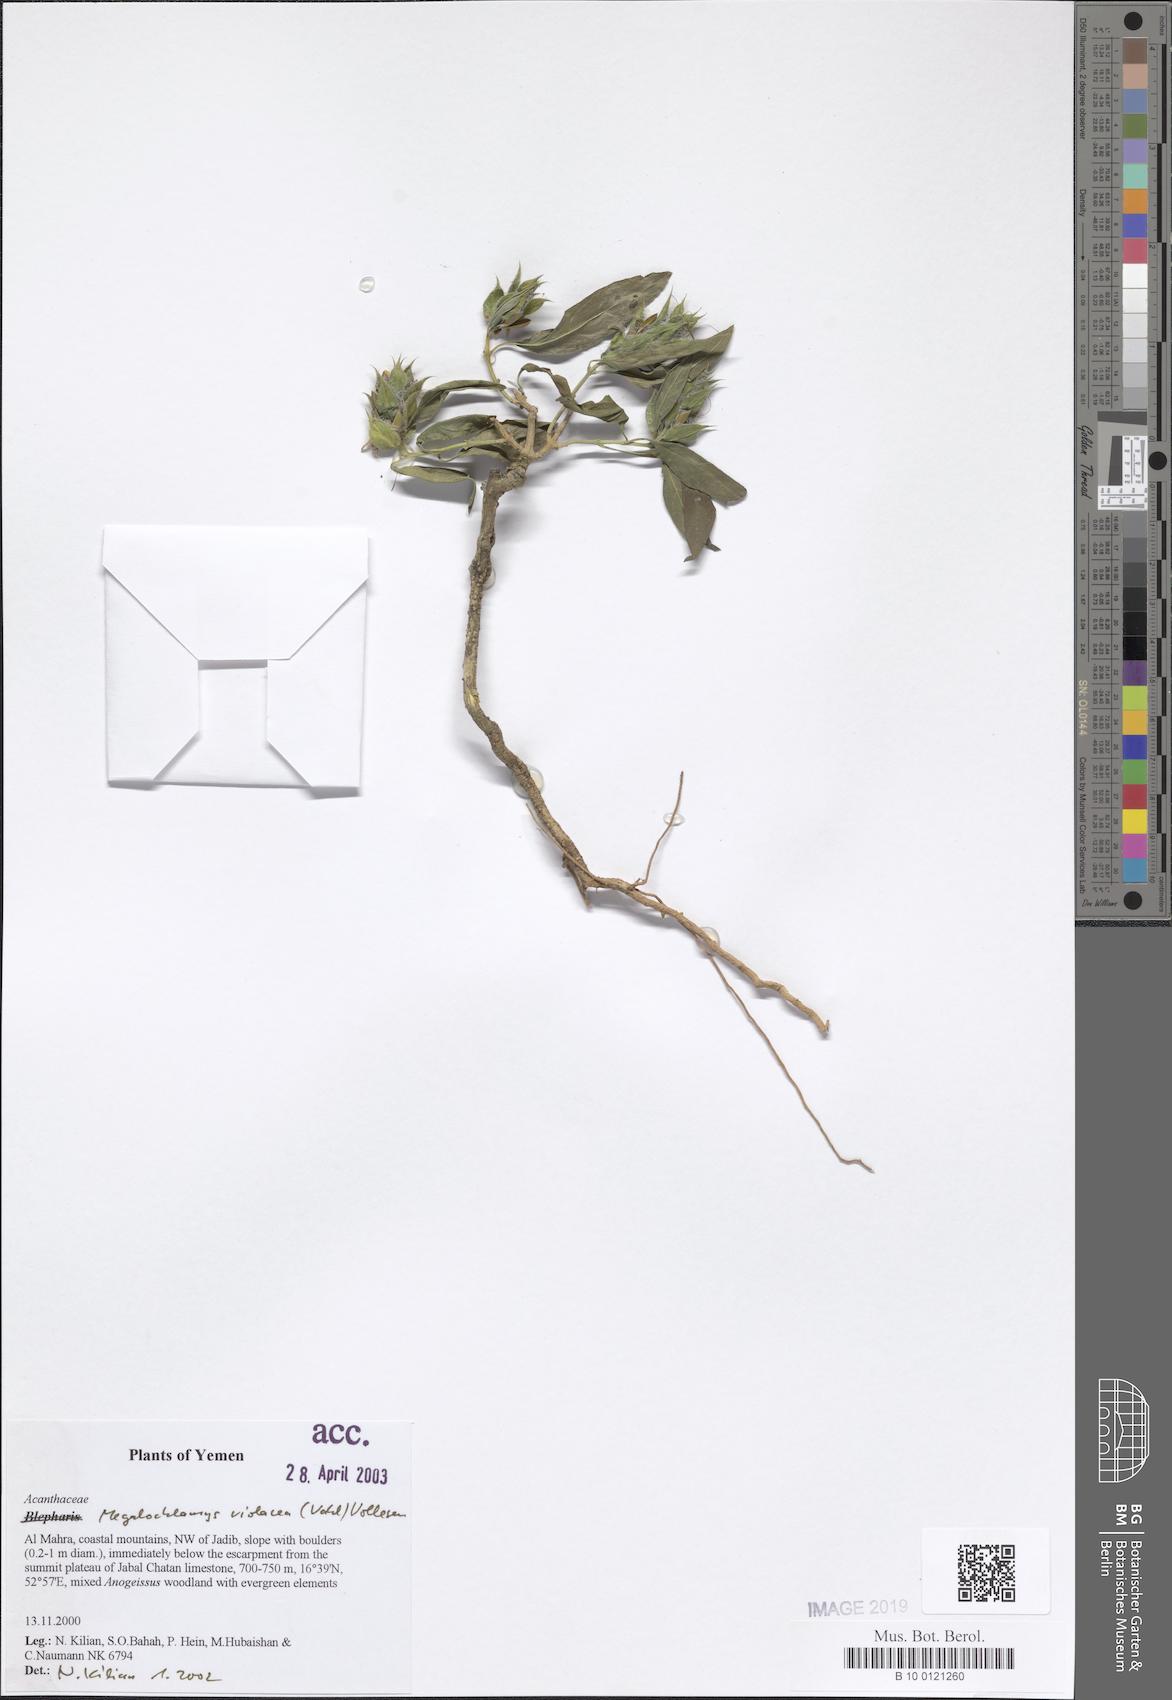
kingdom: Plantae
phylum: Tracheophyta
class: Magnoliopsida
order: Lamiales
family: Acanthaceae
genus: Megalochlamys
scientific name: Megalochlamys violacea
